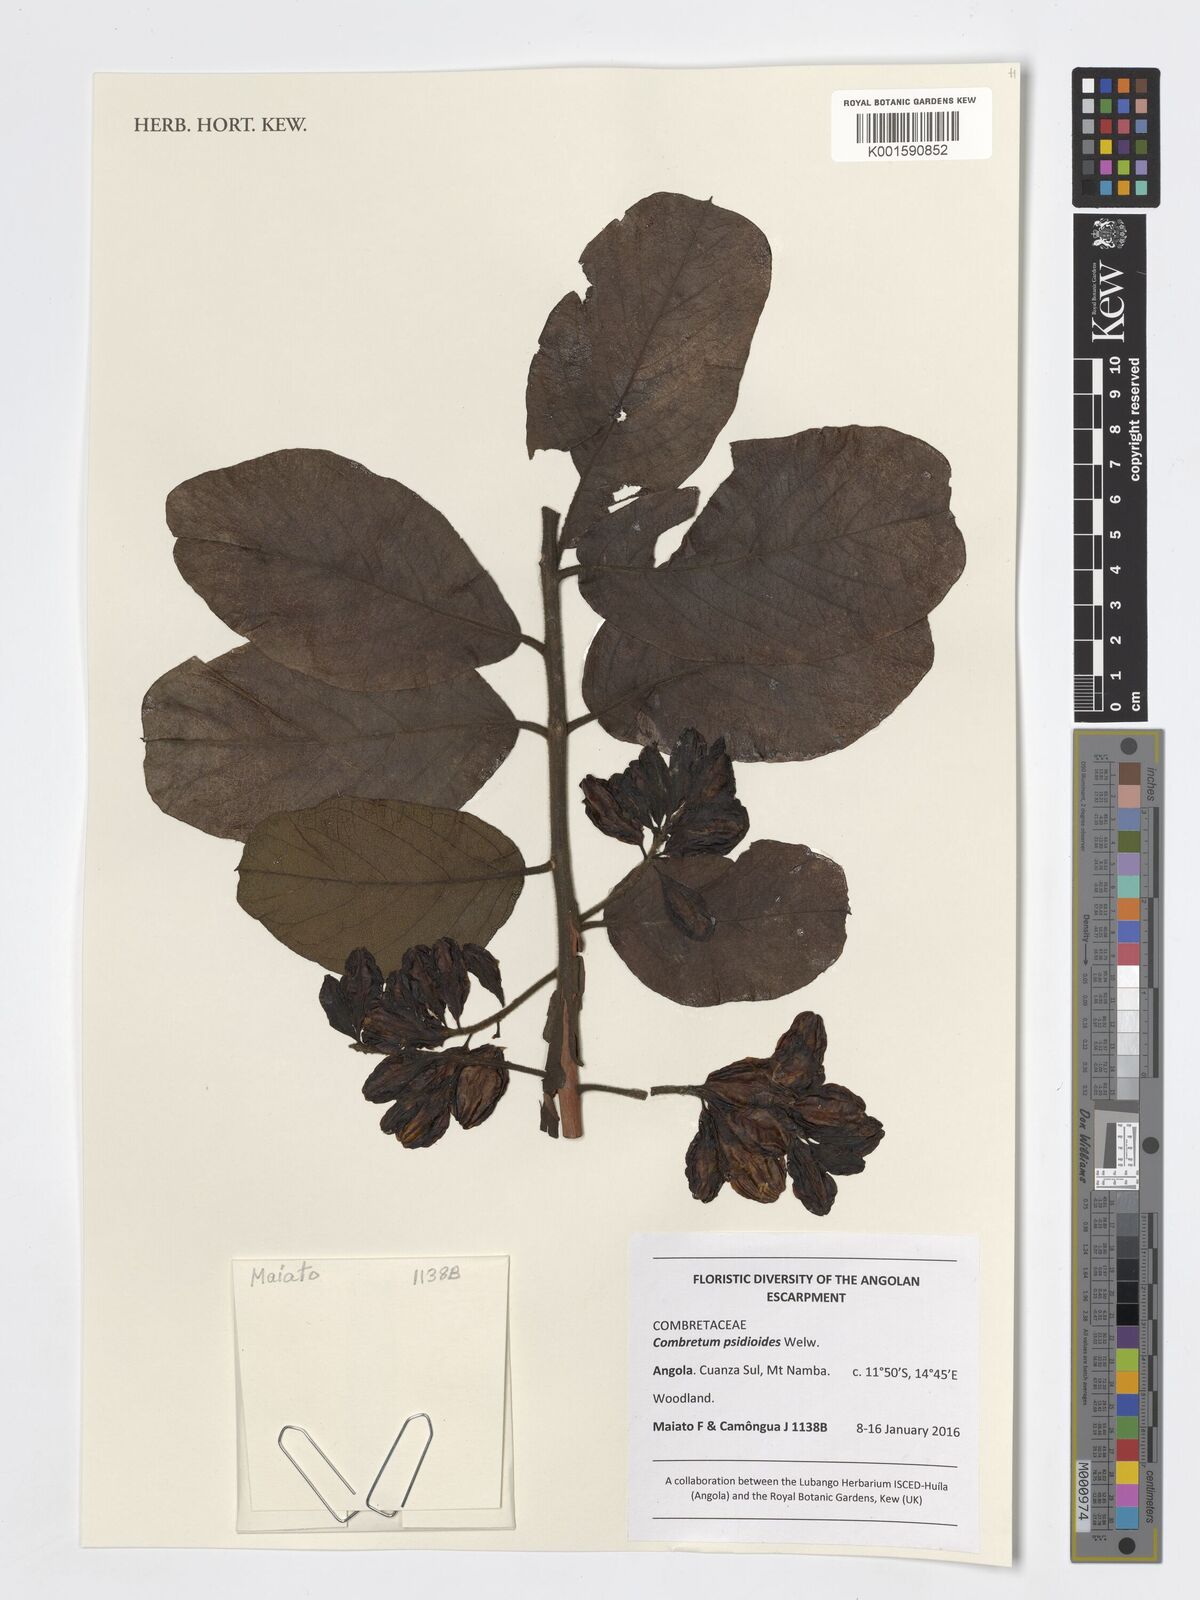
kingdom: Plantae
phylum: Tracheophyta
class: Magnoliopsida
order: Myrtales
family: Combretaceae
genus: Combretum
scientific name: Combretum psidioides
